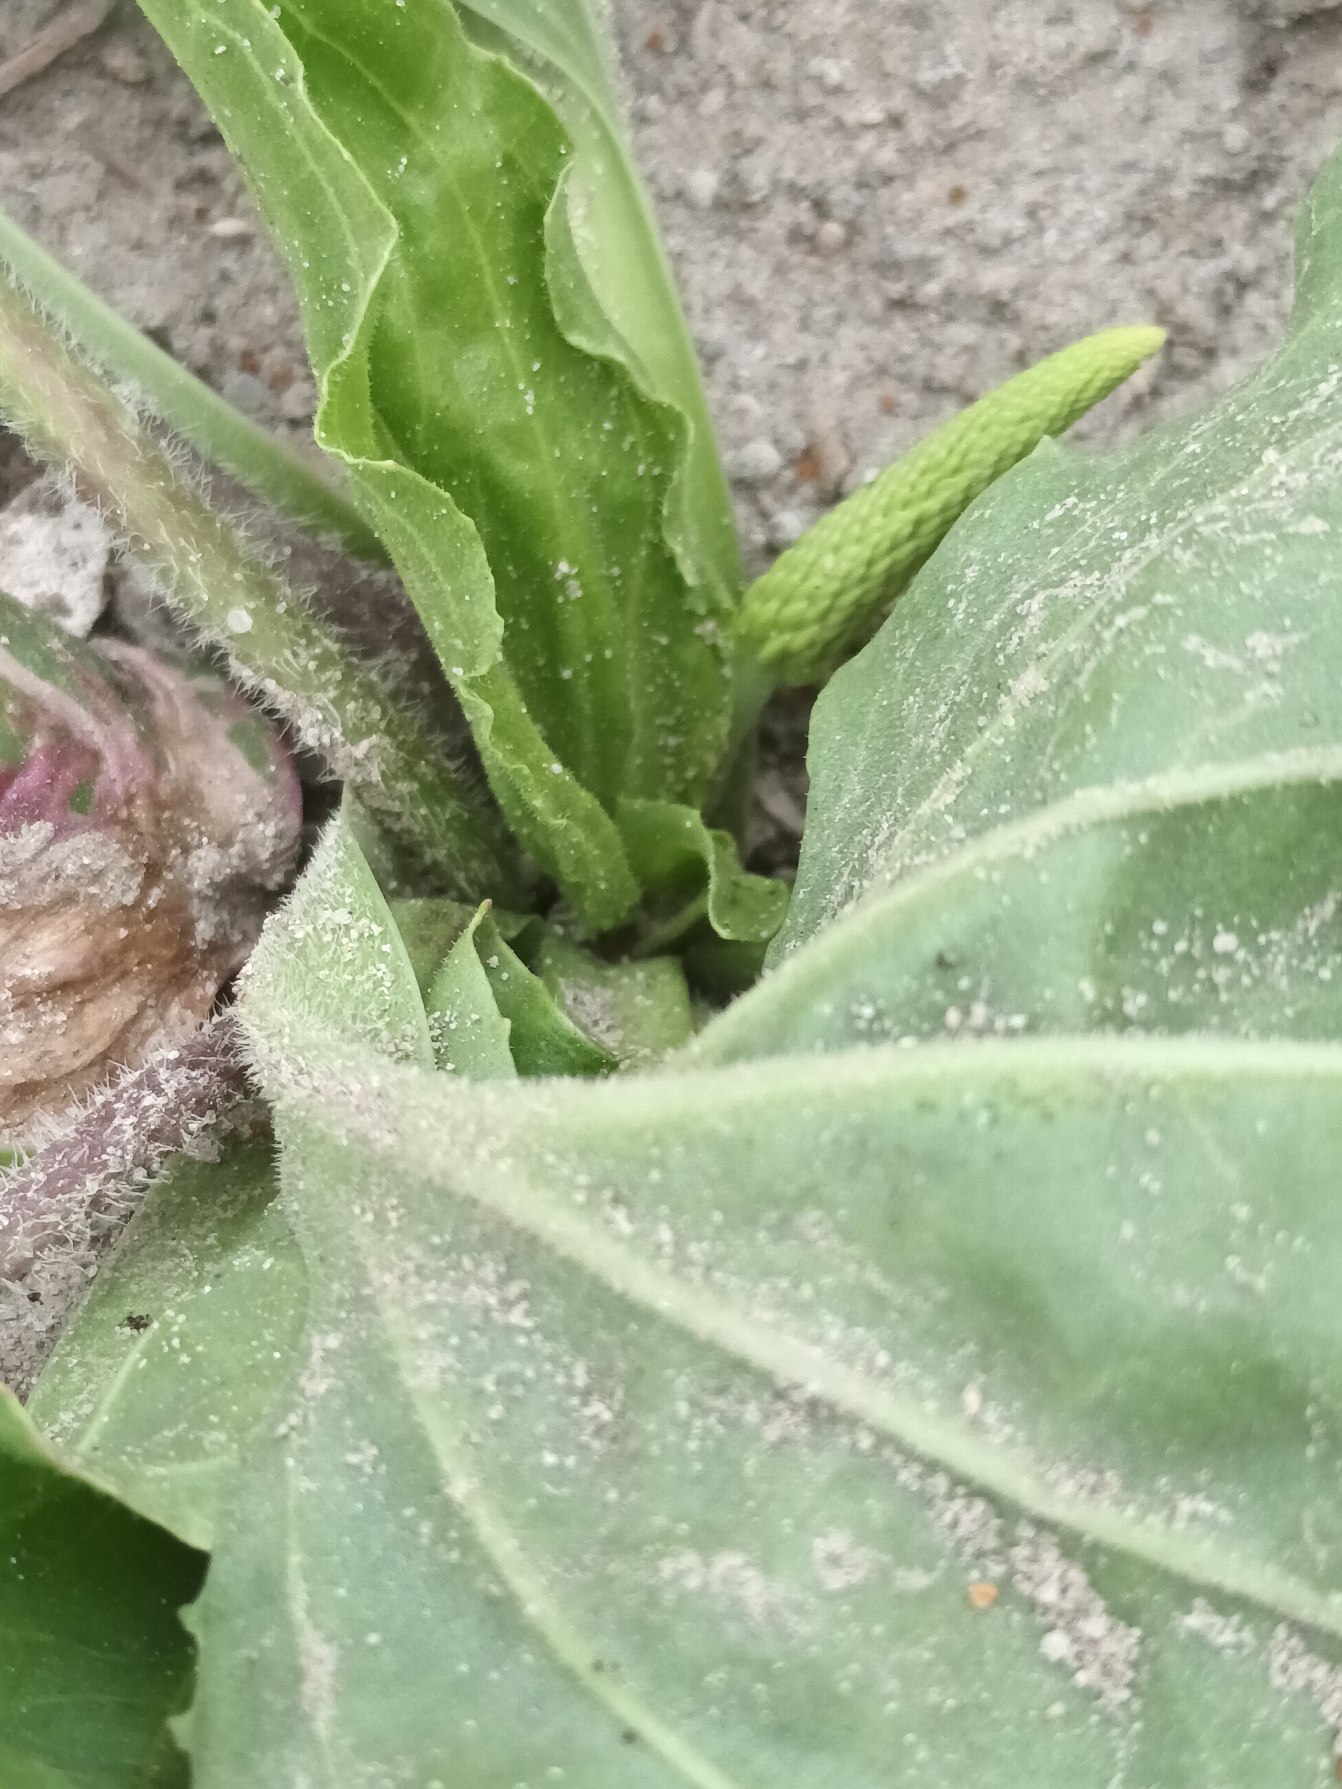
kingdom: Plantae
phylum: Tracheophyta
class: Magnoliopsida
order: Lamiales
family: Plantaginaceae
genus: Plantago
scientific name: Plantago uliginosa
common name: Ager-vejbred
